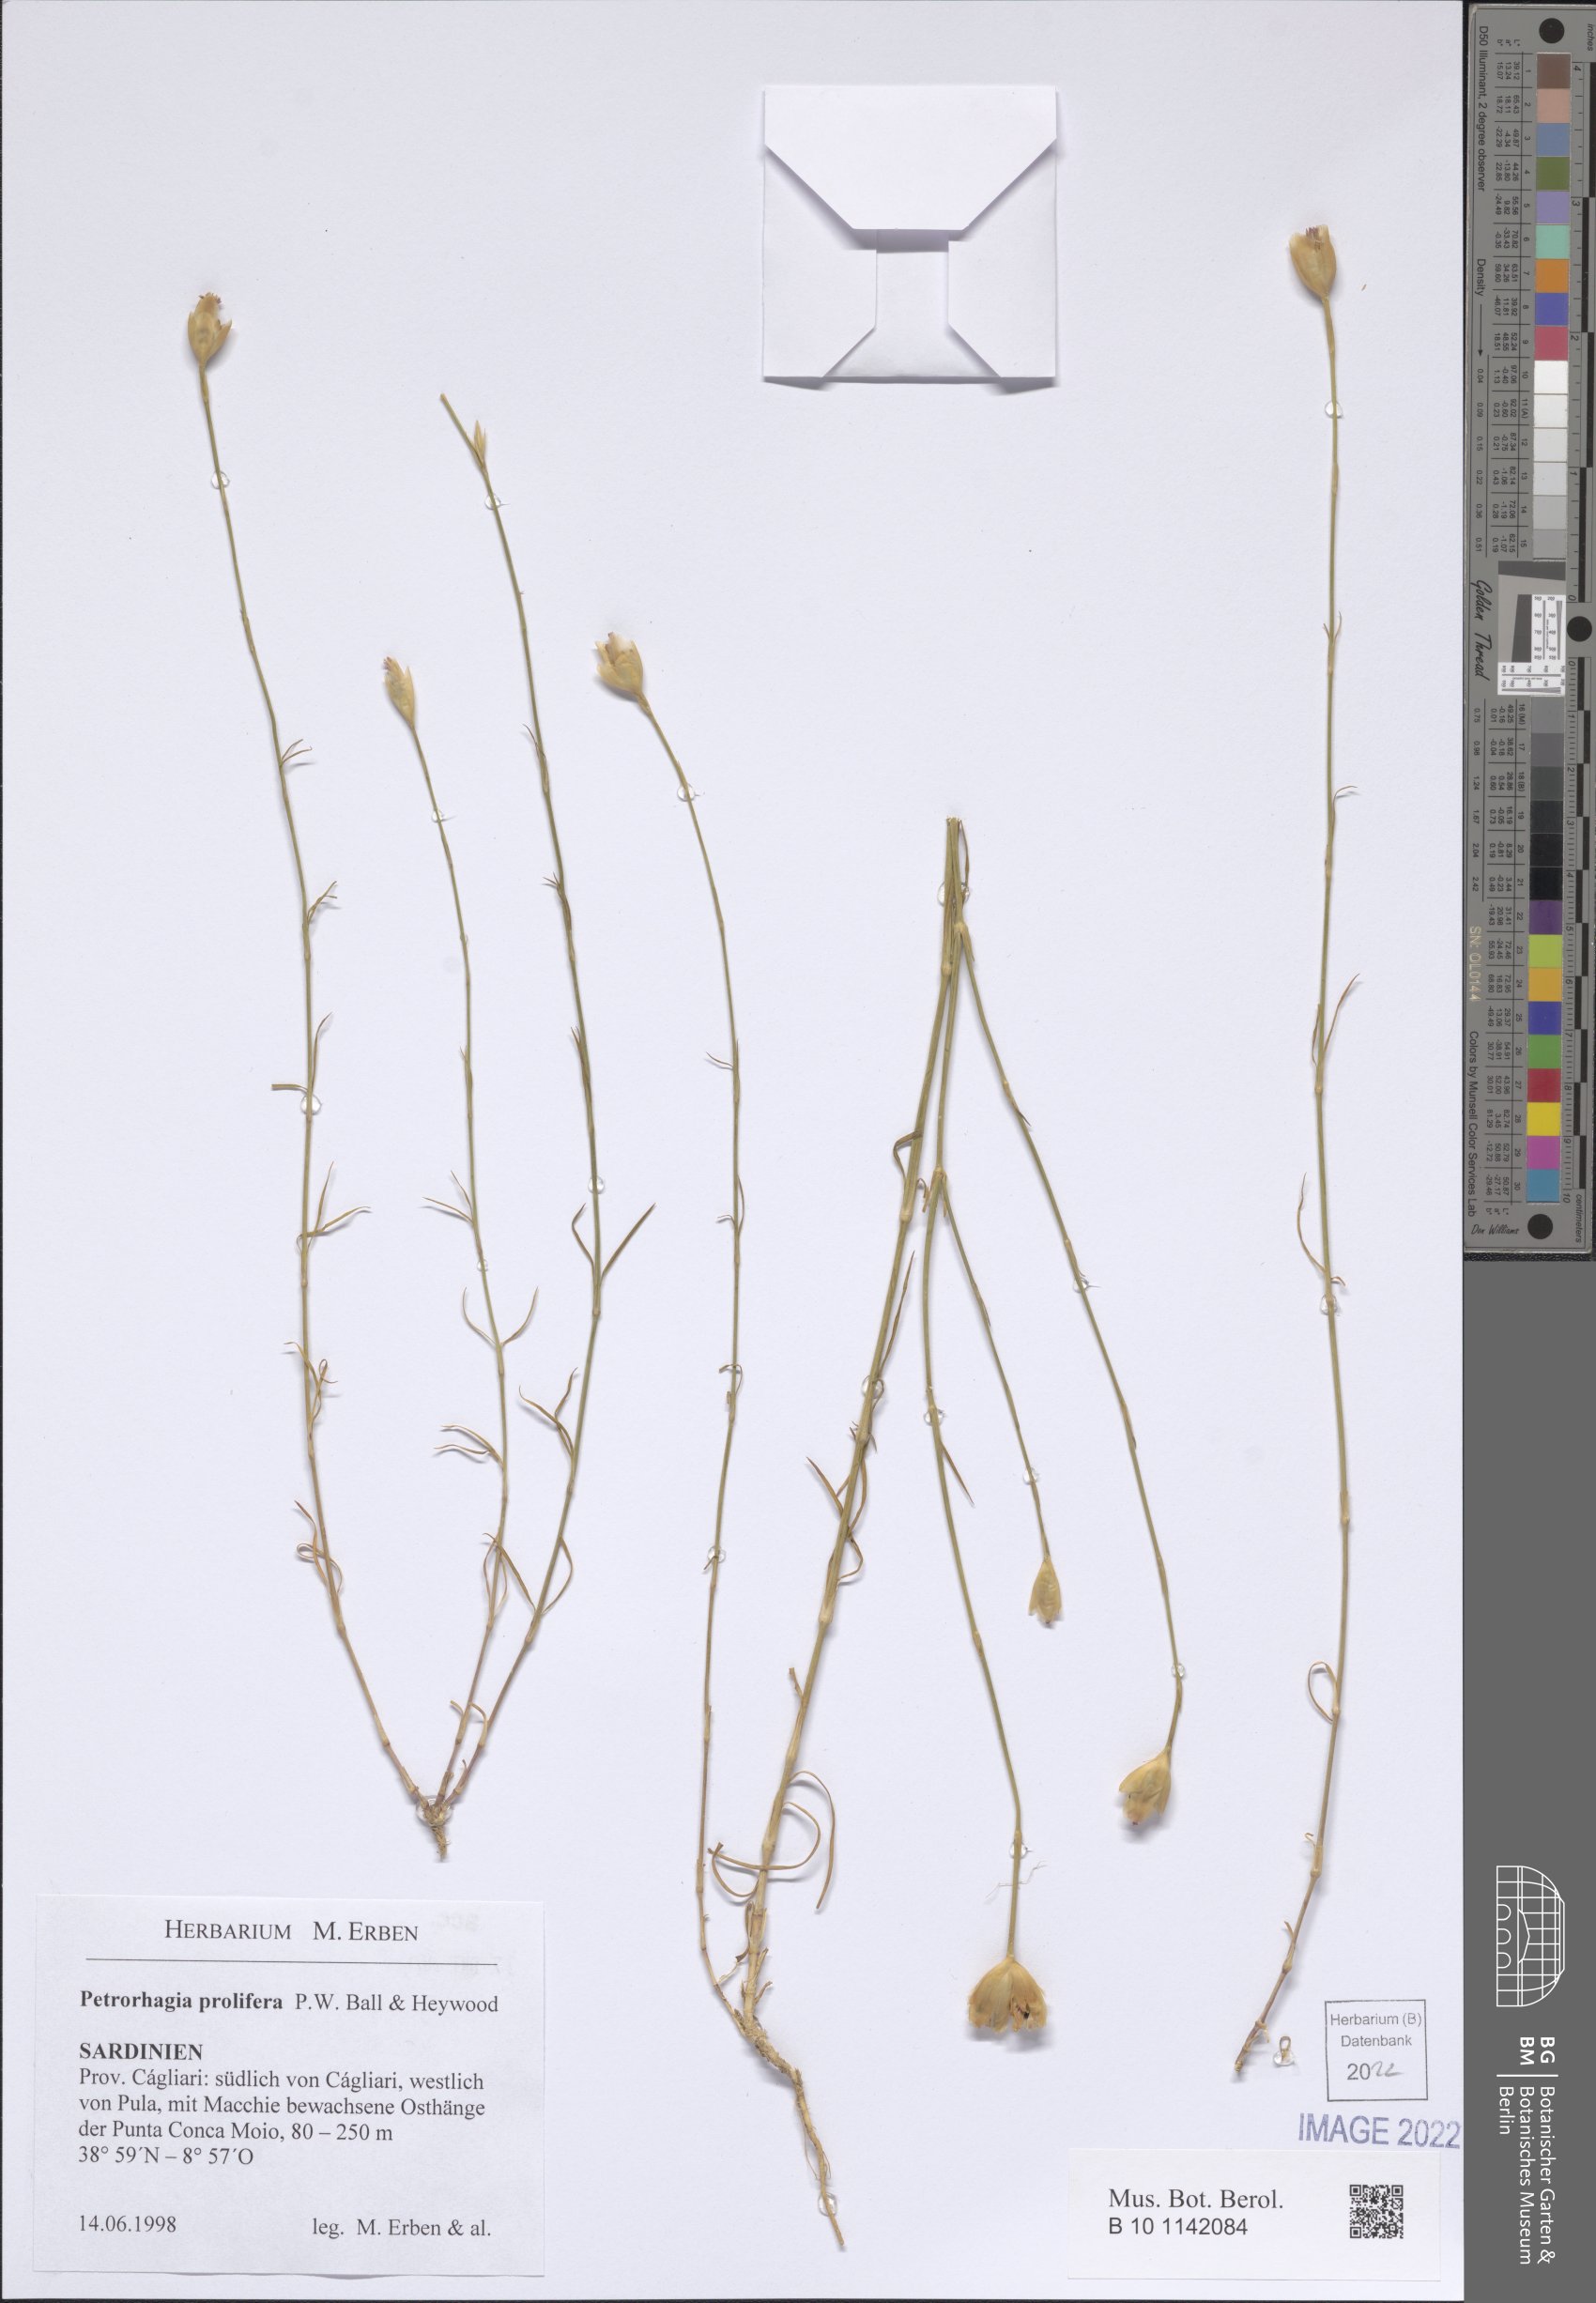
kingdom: Plantae
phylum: Tracheophyta
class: Magnoliopsida
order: Caryophyllales
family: Caryophyllaceae
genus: Petrorhagia
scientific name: Petrorhagia prolifera
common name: Proliferous pink
